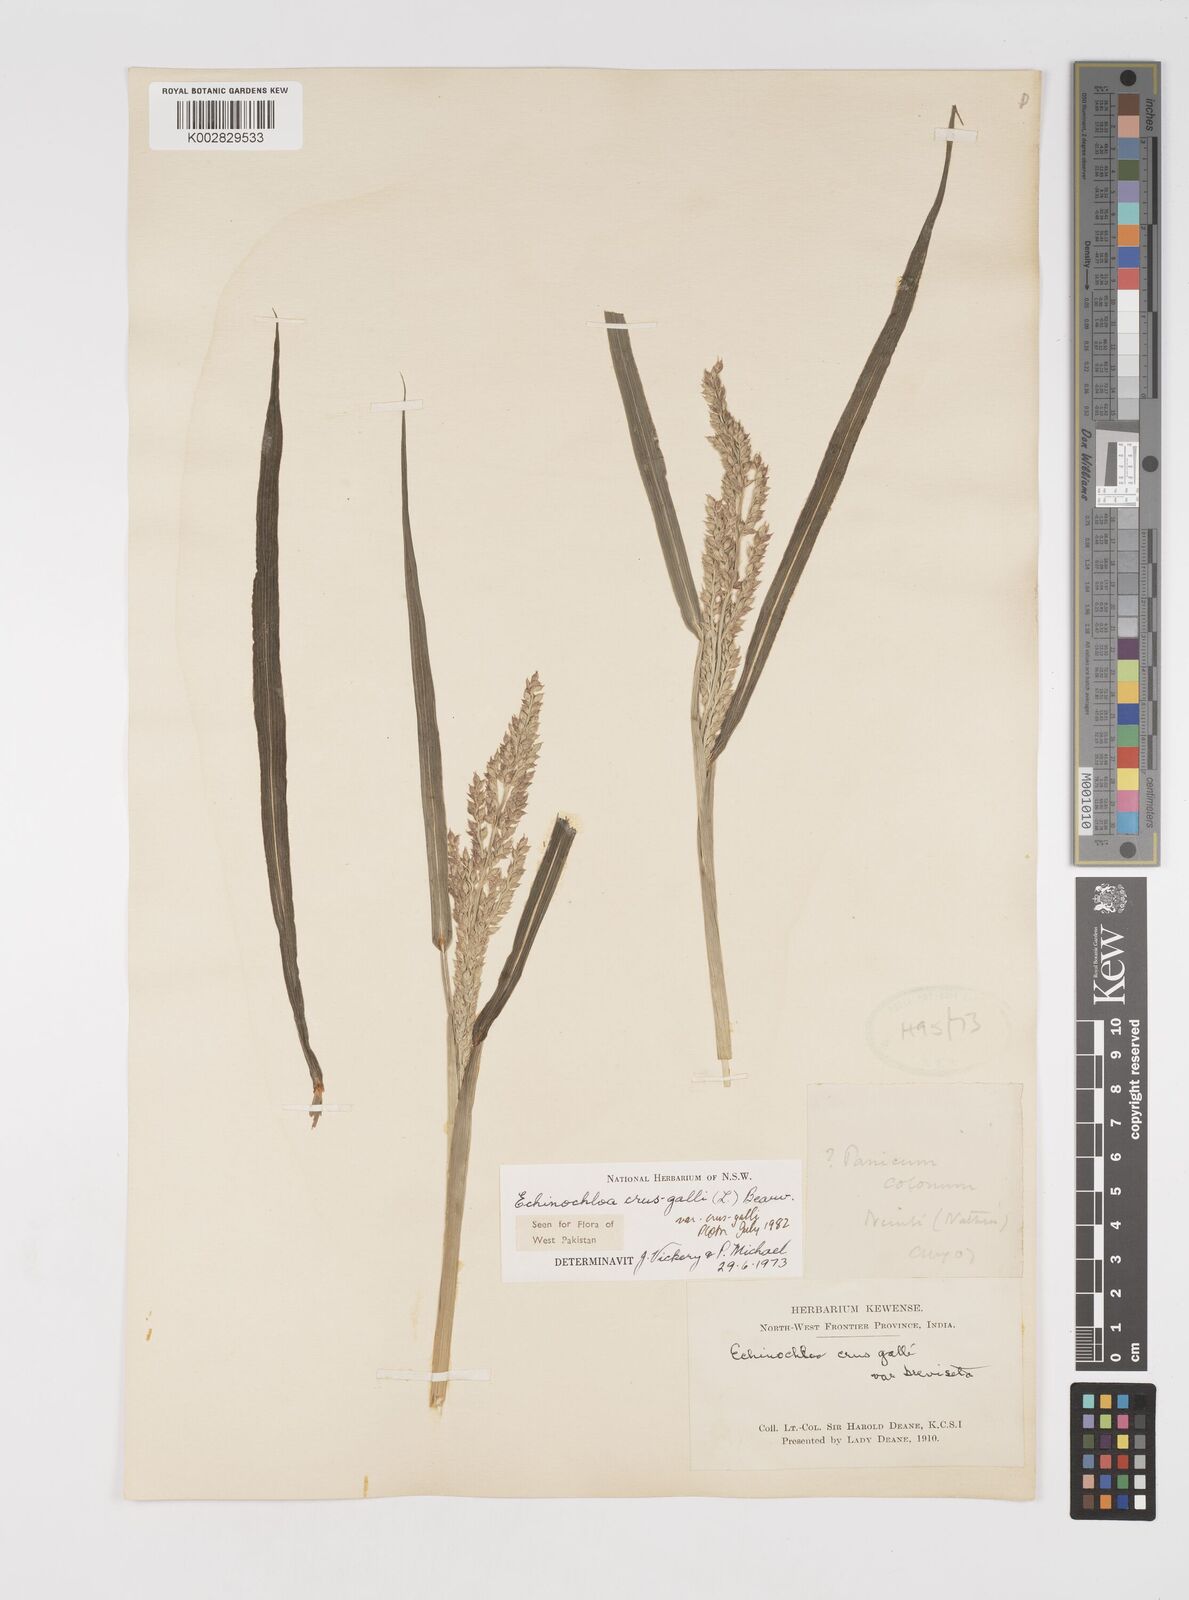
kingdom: Plantae
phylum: Tracheophyta
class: Liliopsida
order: Poales
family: Poaceae
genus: Echinochloa
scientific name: Echinochloa crus-galli
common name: Cockspur
